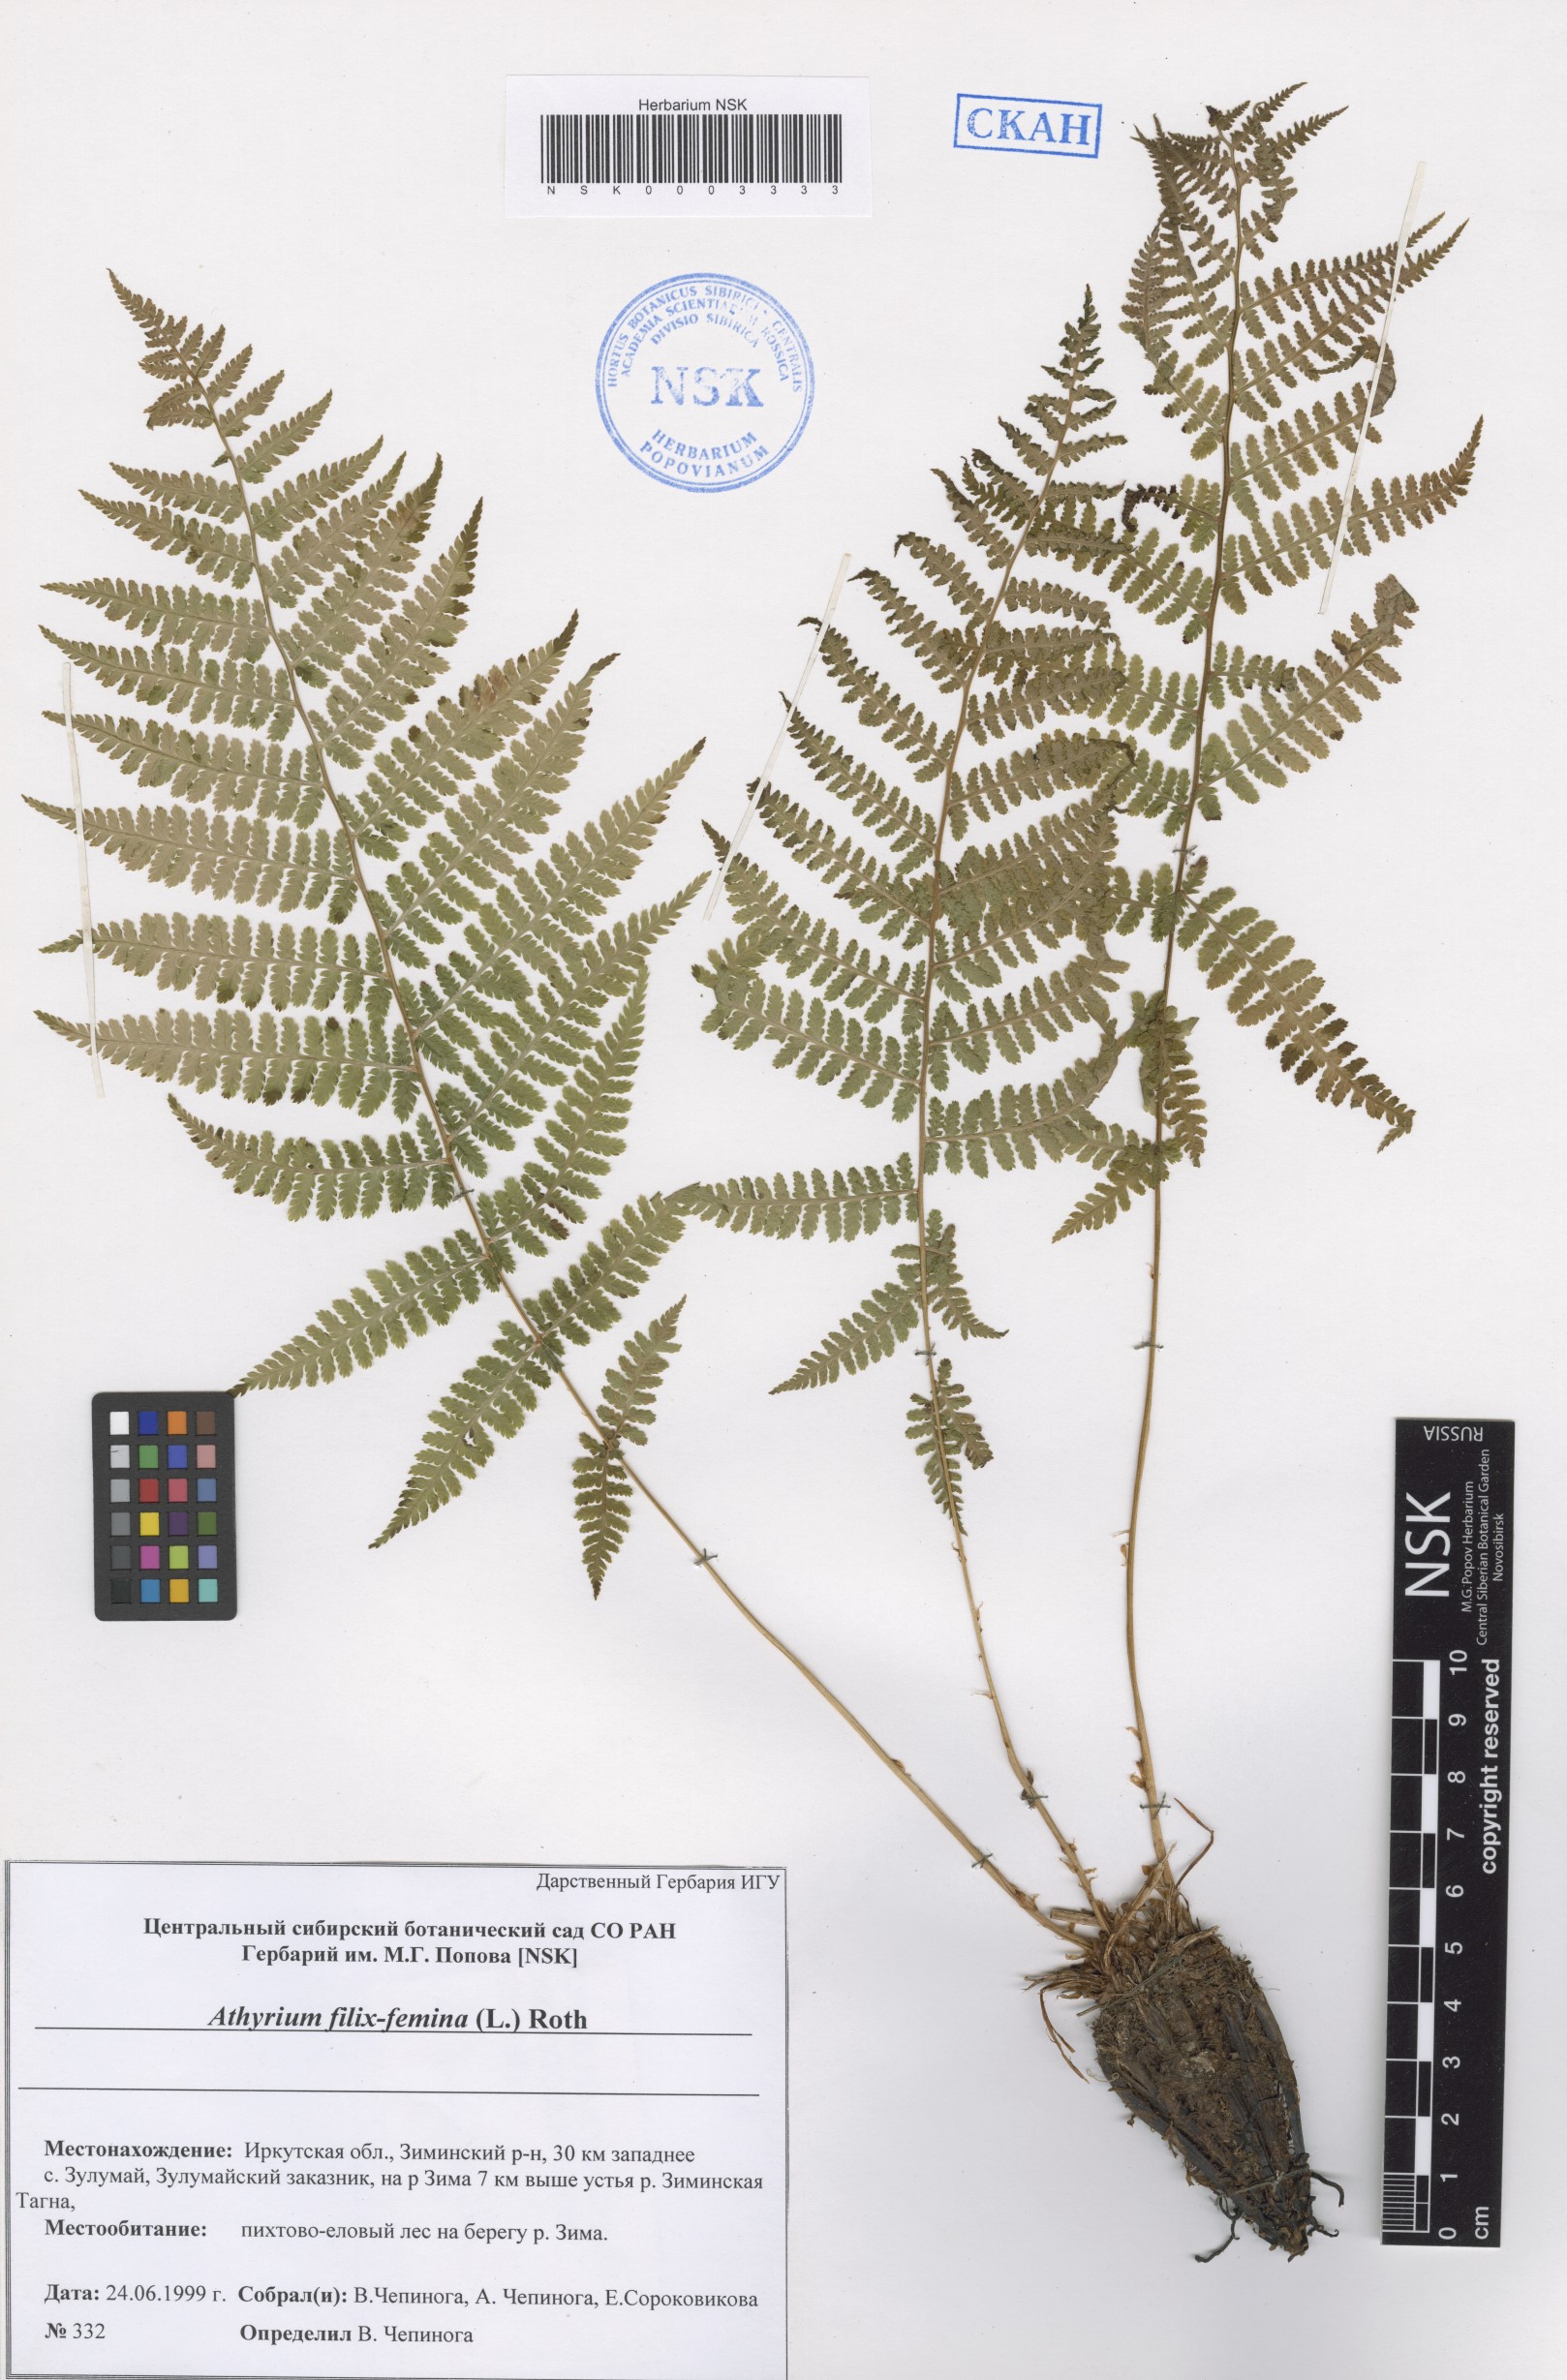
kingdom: Plantae
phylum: Tracheophyta
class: Polypodiopsida
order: Polypodiales
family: Athyriaceae
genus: Athyrium
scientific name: Athyrium filix-femina
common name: Lady fern
